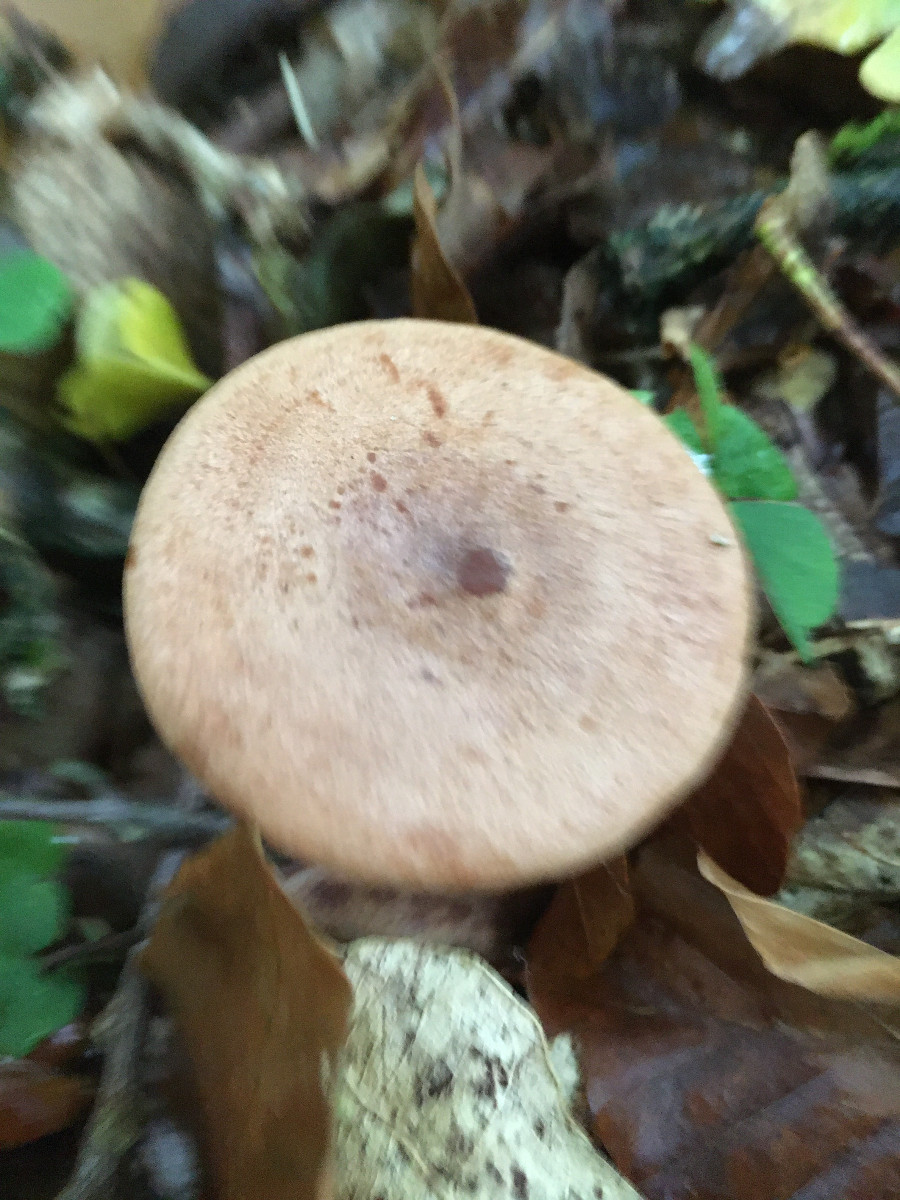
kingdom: Fungi
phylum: Basidiomycota
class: Agaricomycetes
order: Russulales
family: Russulaceae
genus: Lactarius
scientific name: Lactarius quietus
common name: ege-mælkehat
